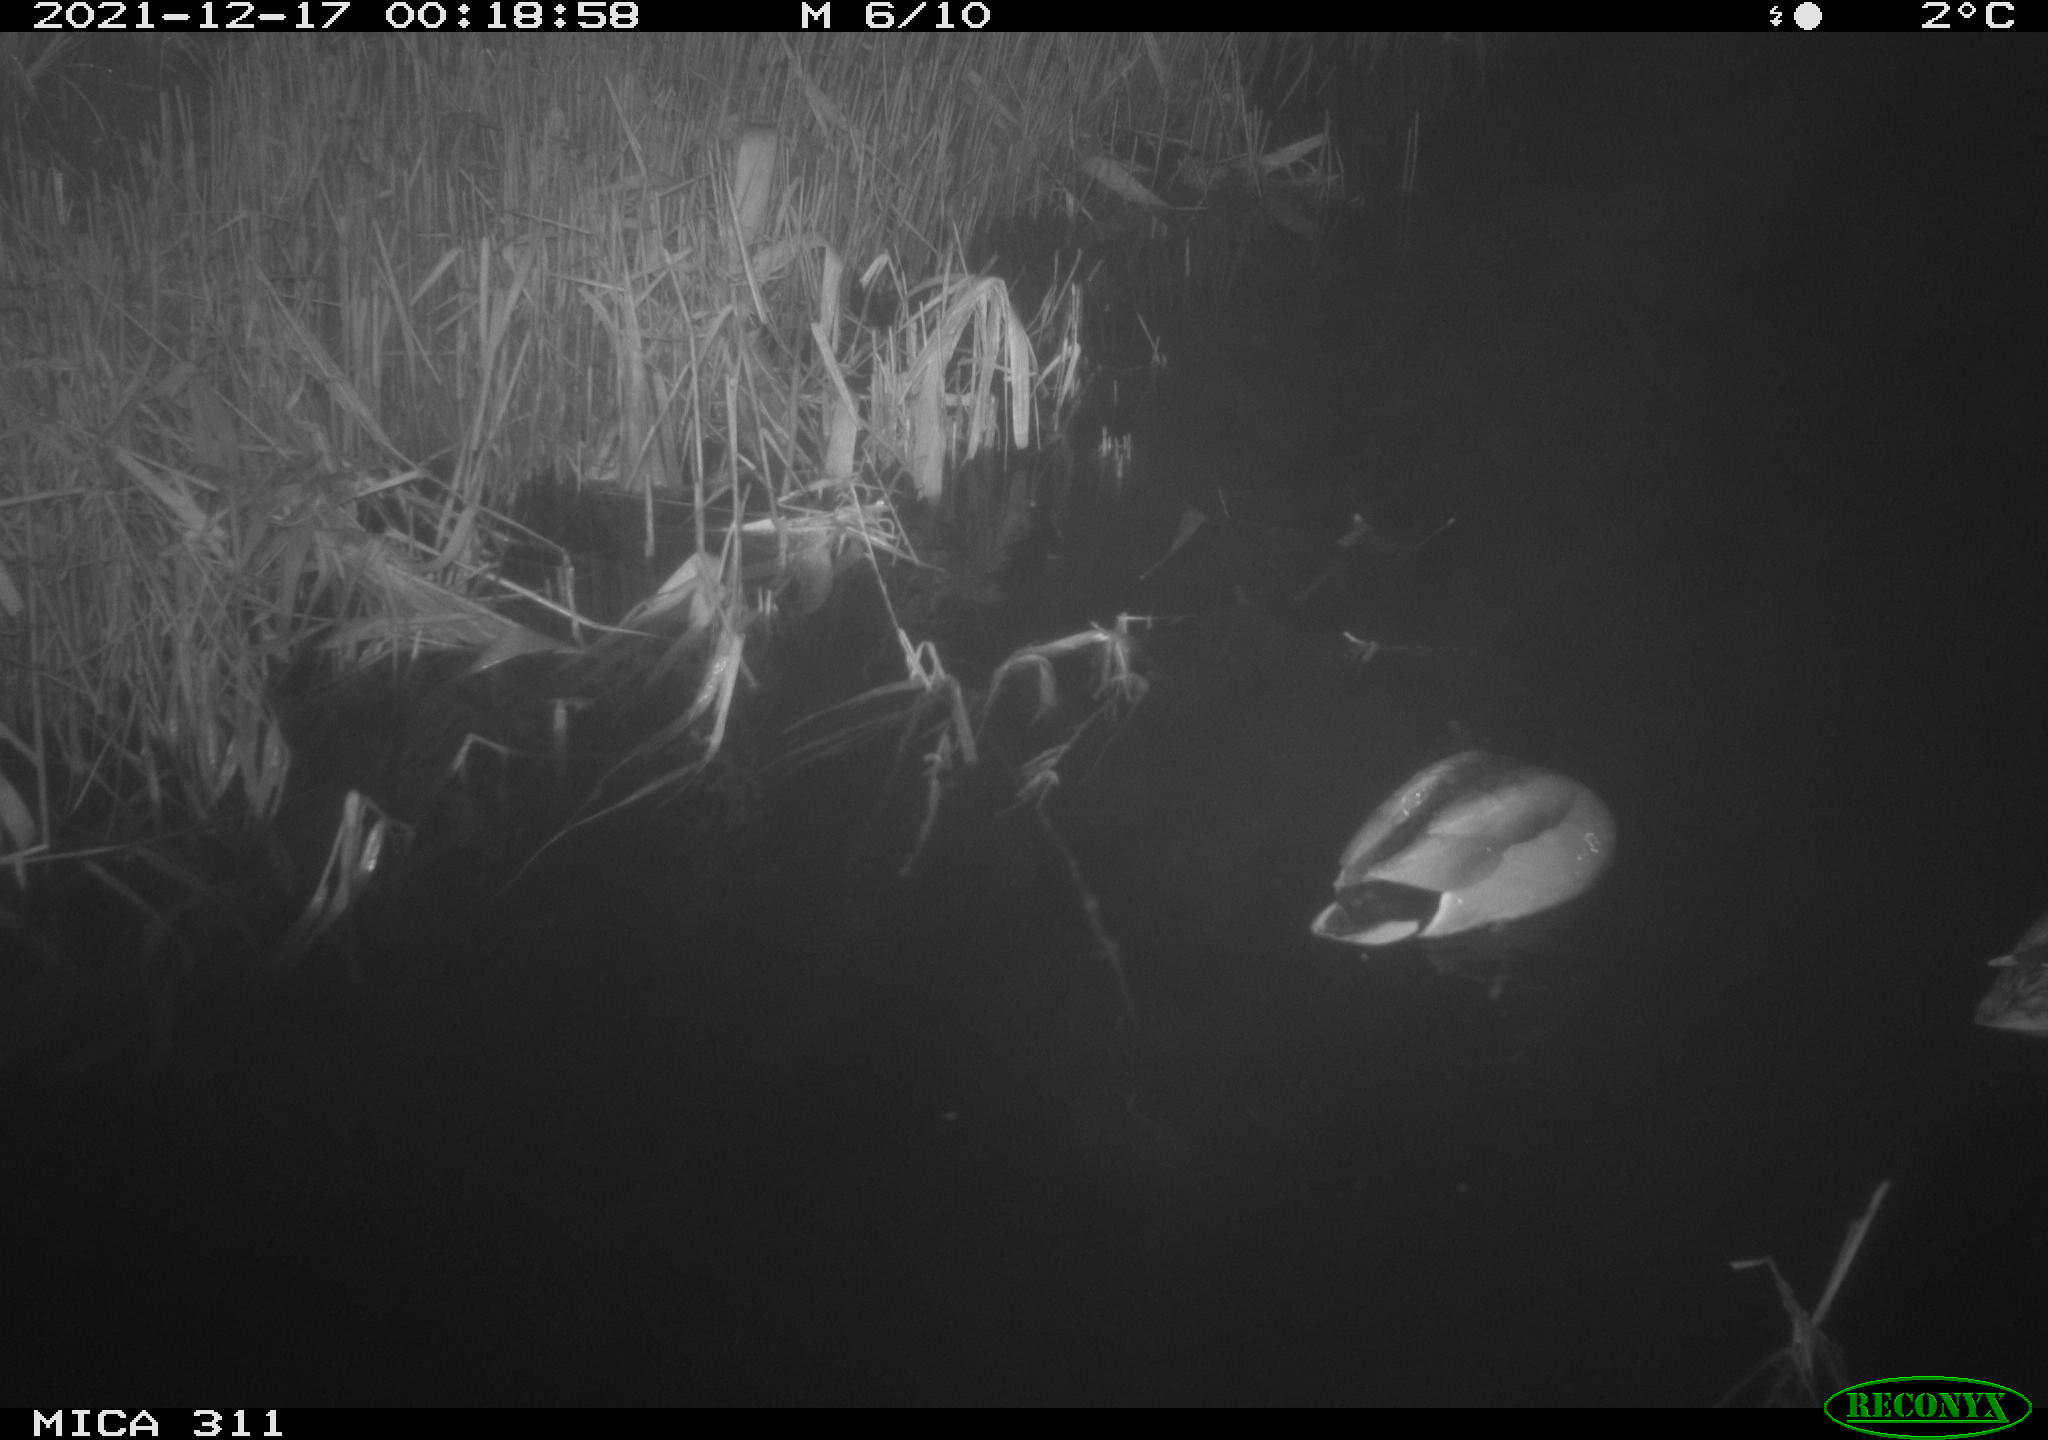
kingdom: Animalia
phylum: Chordata
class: Aves
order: Anseriformes
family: Anatidae
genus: Anas
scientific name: Anas platyrhynchos
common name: Mallard
